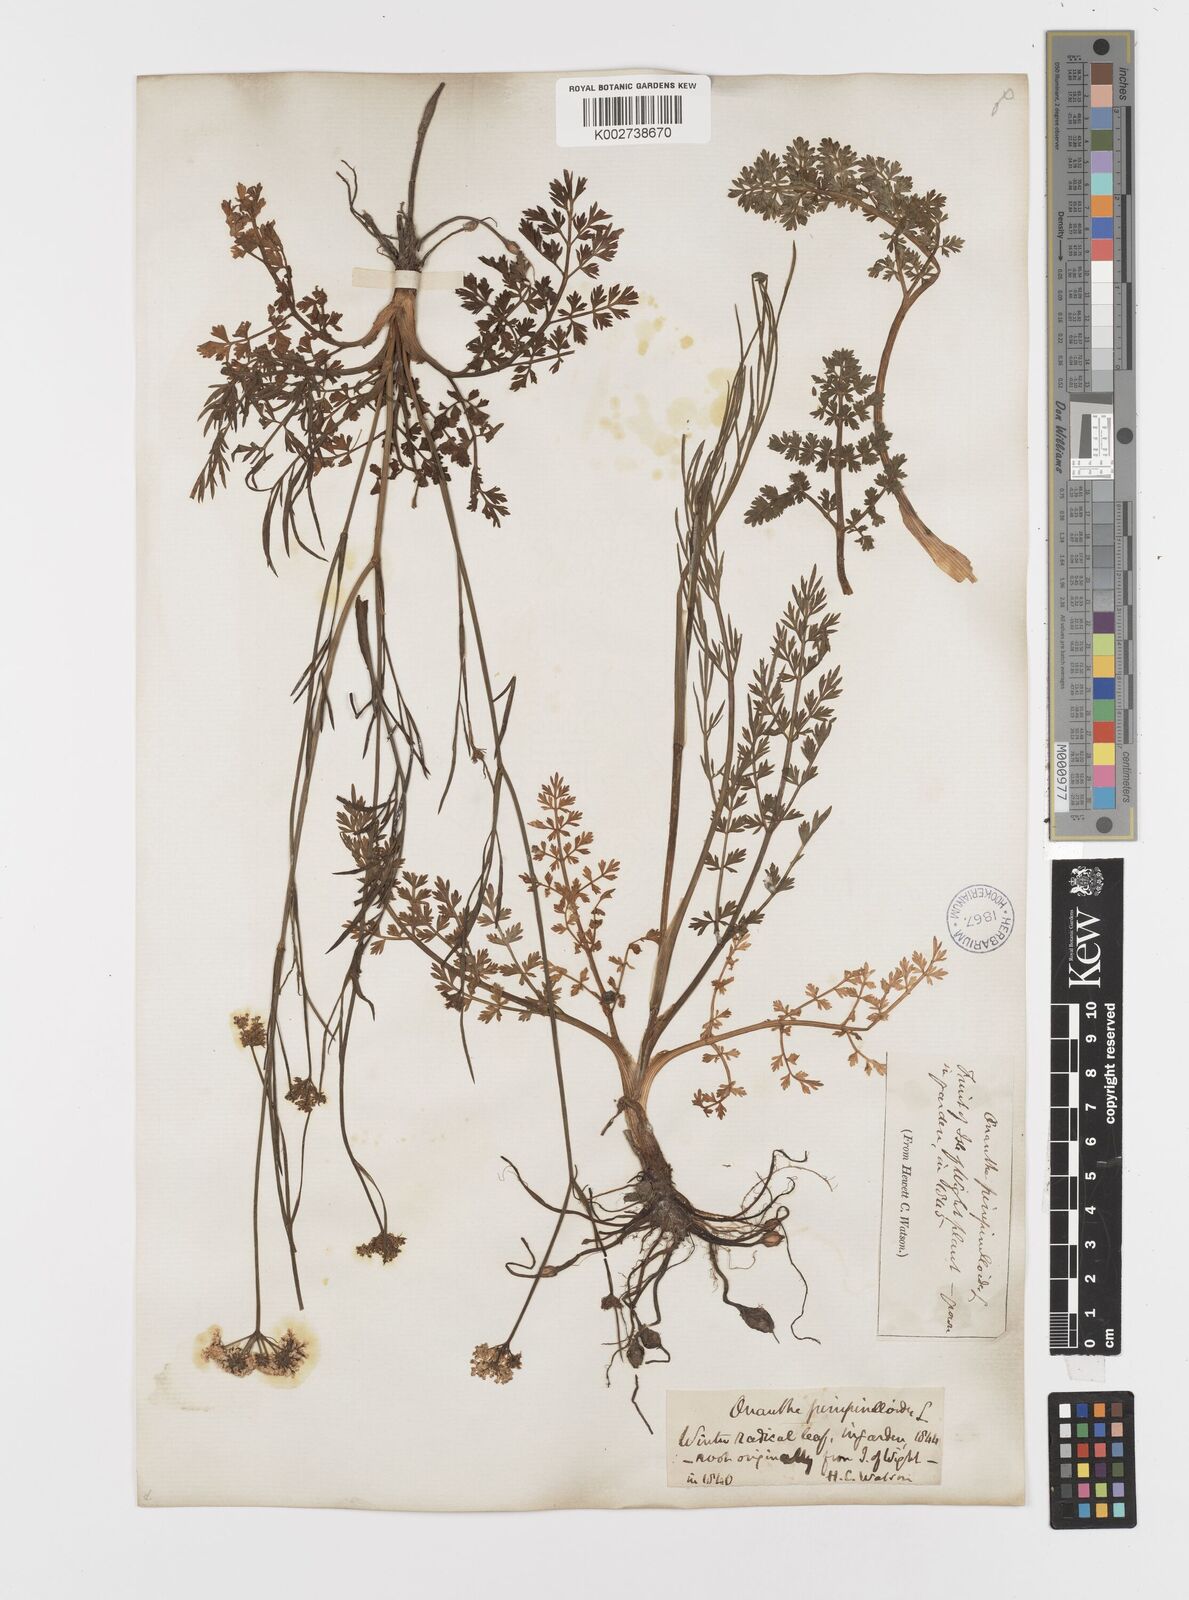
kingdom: Plantae
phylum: Tracheophyta
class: Magnoliopsida
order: Apiales
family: Apiaceae
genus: Oenanthe
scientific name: Oenanthe pimpinelloides
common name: Corky-fruited water-dropwort
